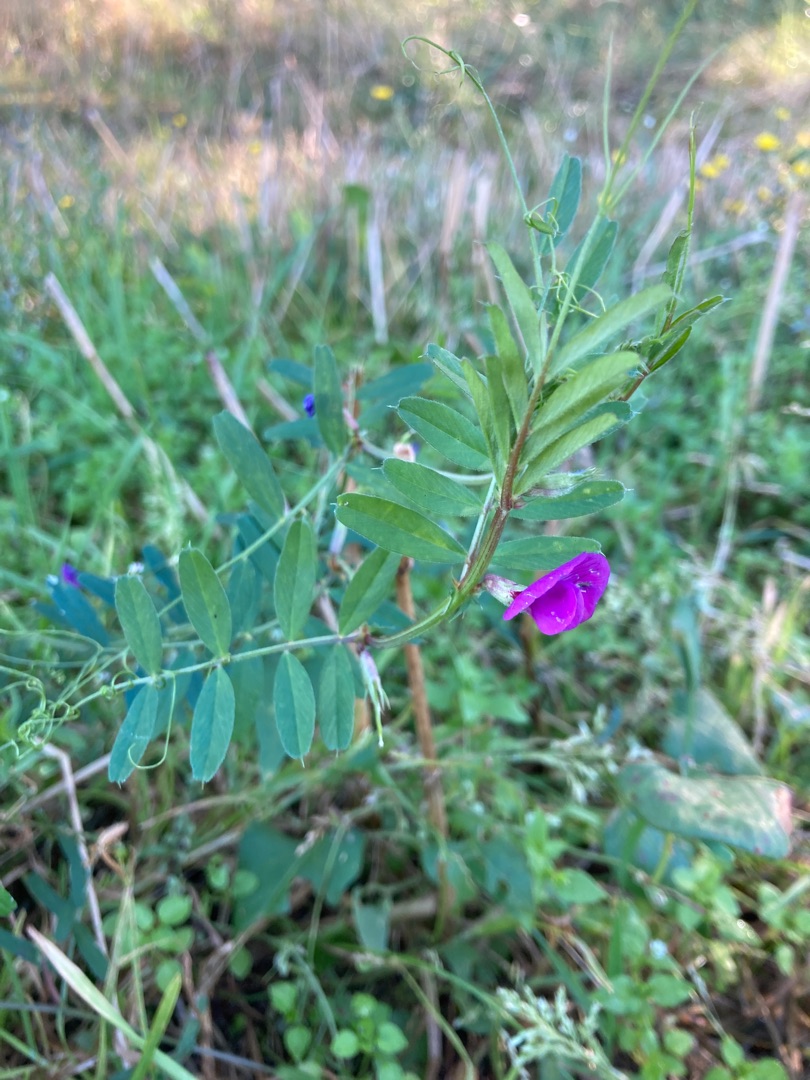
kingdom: Plantae
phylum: Tracheophyta
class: Magnoliopsida
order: Fabales
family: Fabaceae
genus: Vicia
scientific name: Vicia sativa
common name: Foder-vikke
